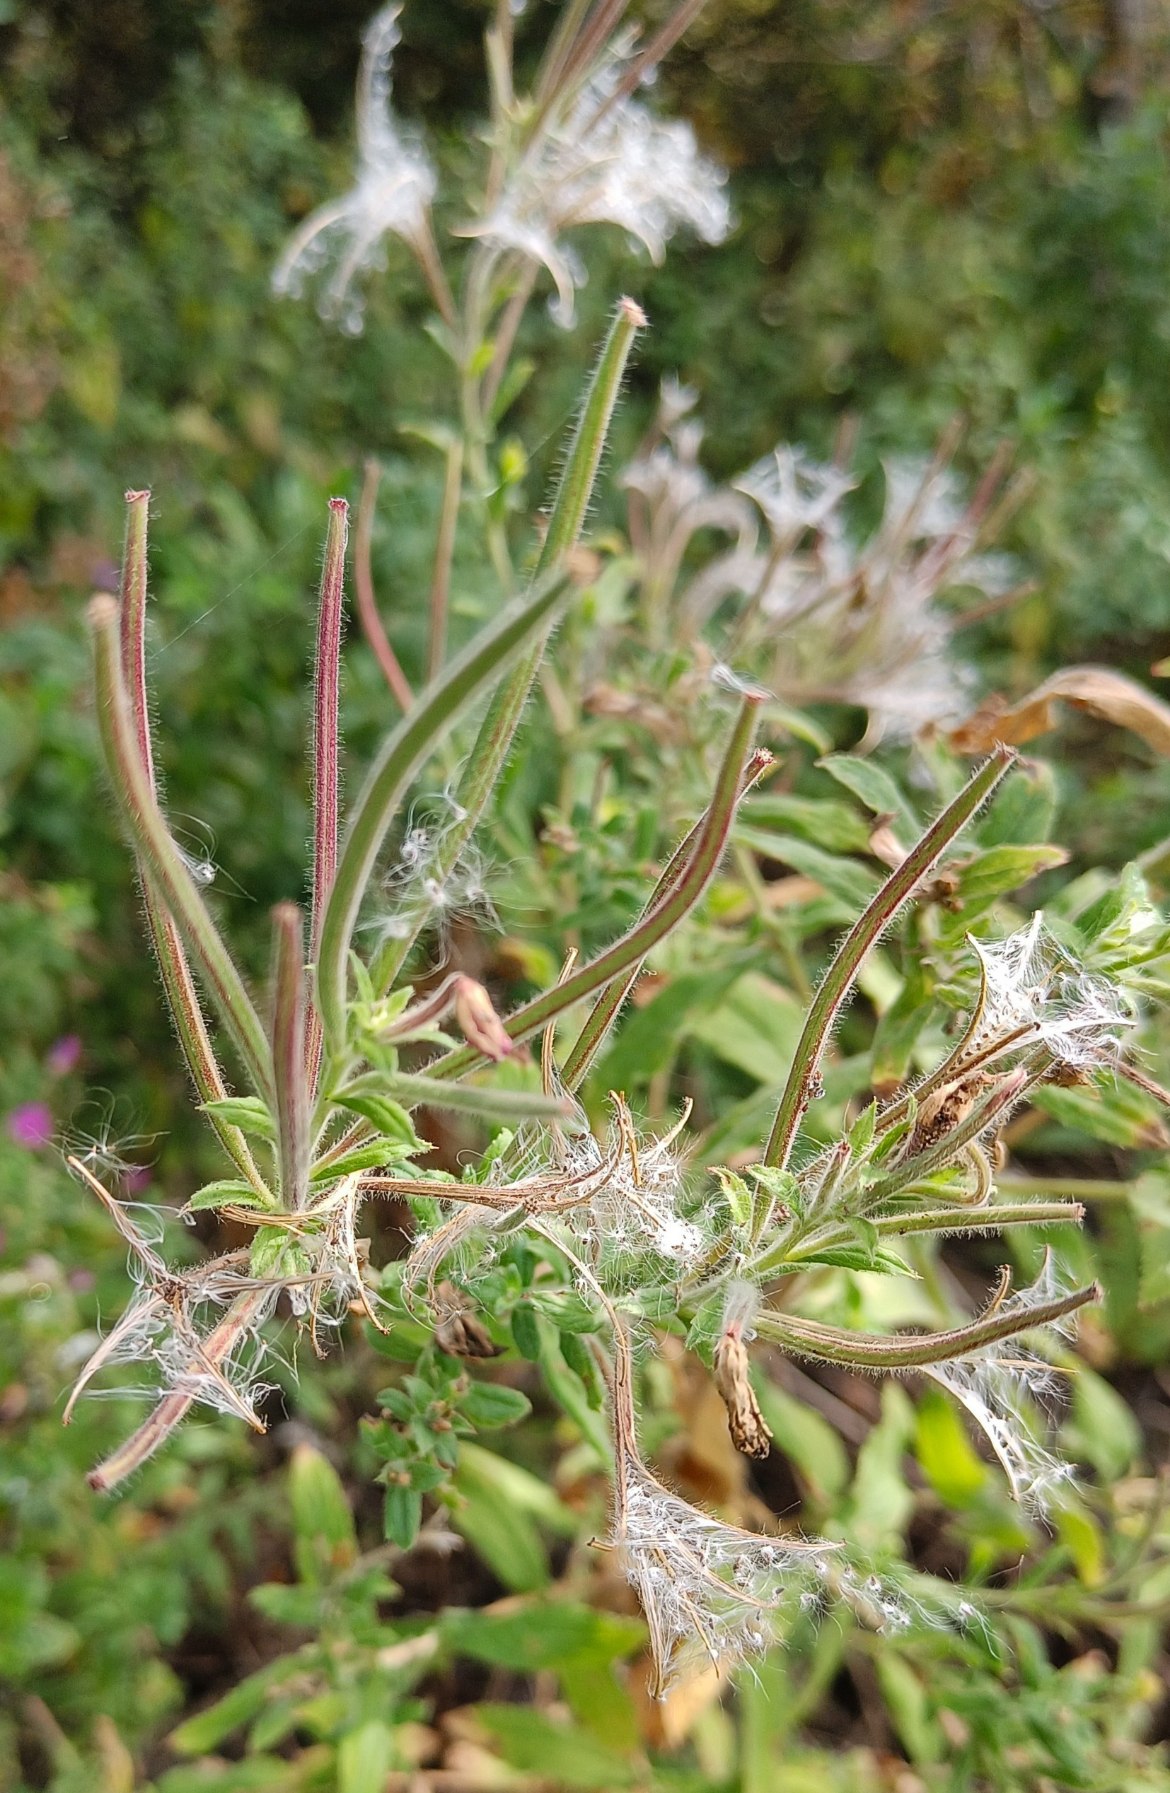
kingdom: Plantae
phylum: Tracheophyta
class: Magnoliopsida
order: Myrtales
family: Onagraceae
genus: Epilobium
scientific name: Epilobium hirsutum
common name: Lådden dueurt
